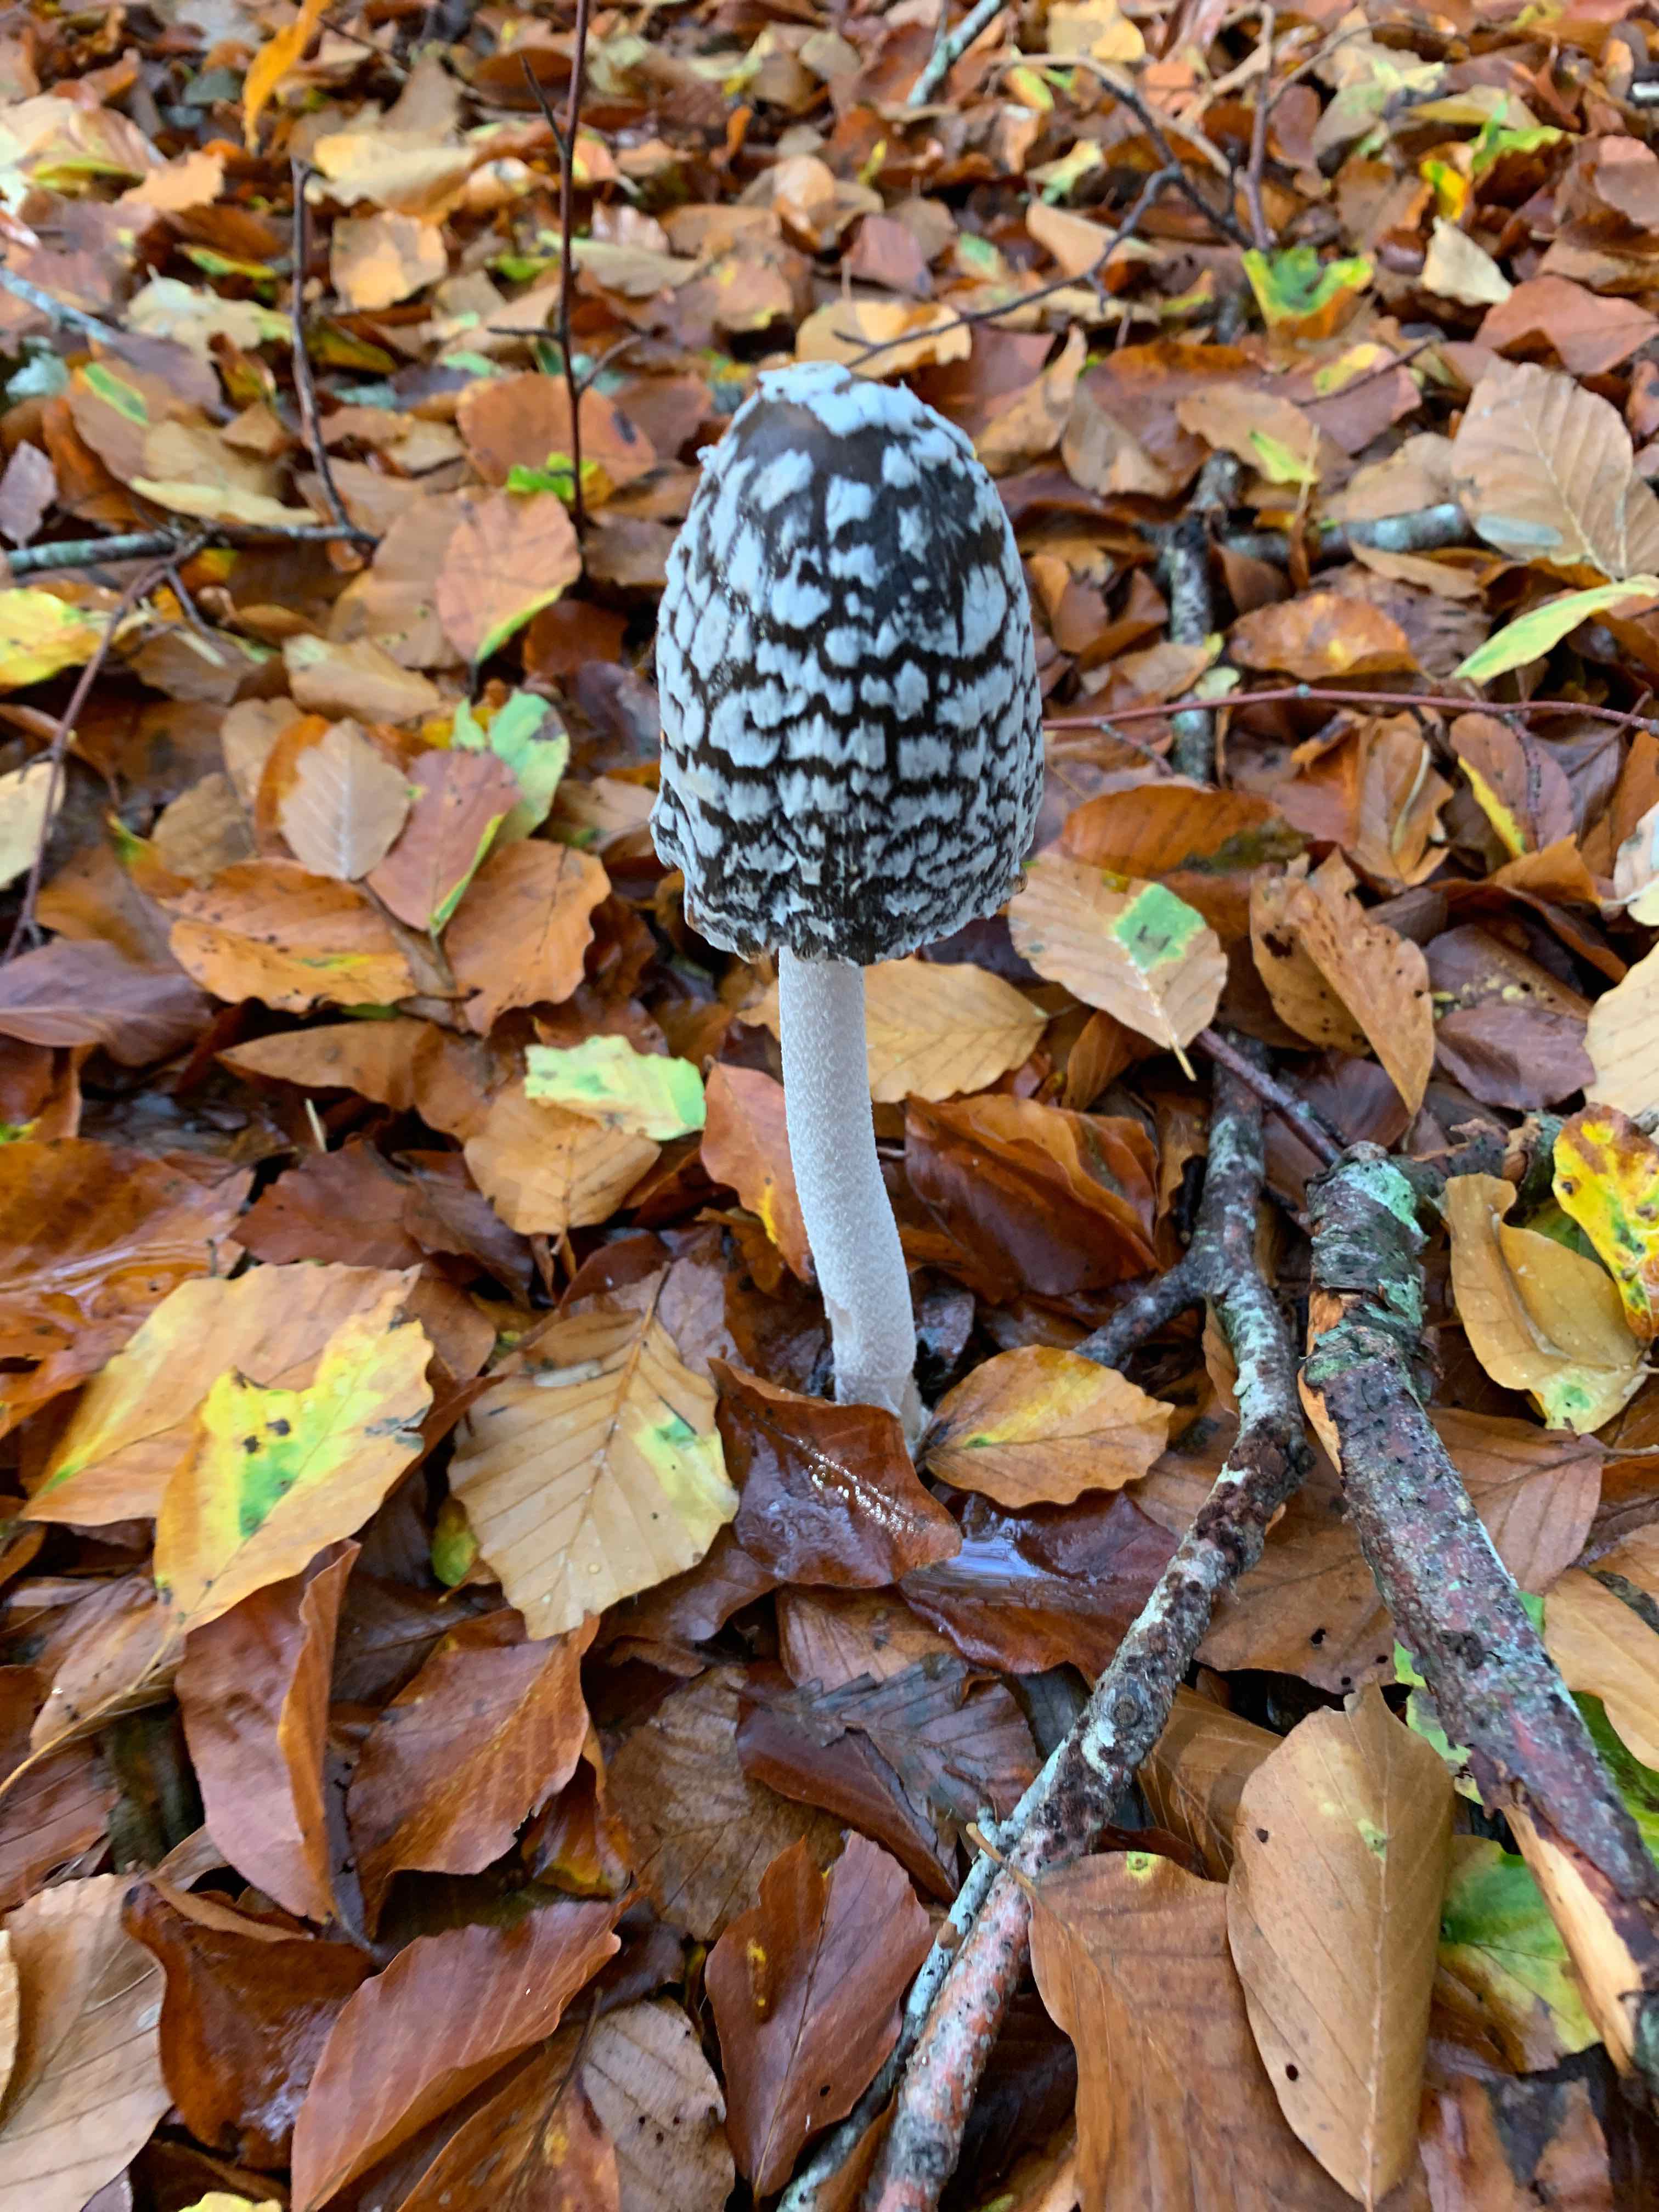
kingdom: Fungi
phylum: Basidiomycota
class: Agaricomycetes
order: Agaricales
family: Psathyrellaceae
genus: Coprinopsis
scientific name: Coprinopsis picacea
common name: skade-blækhat
